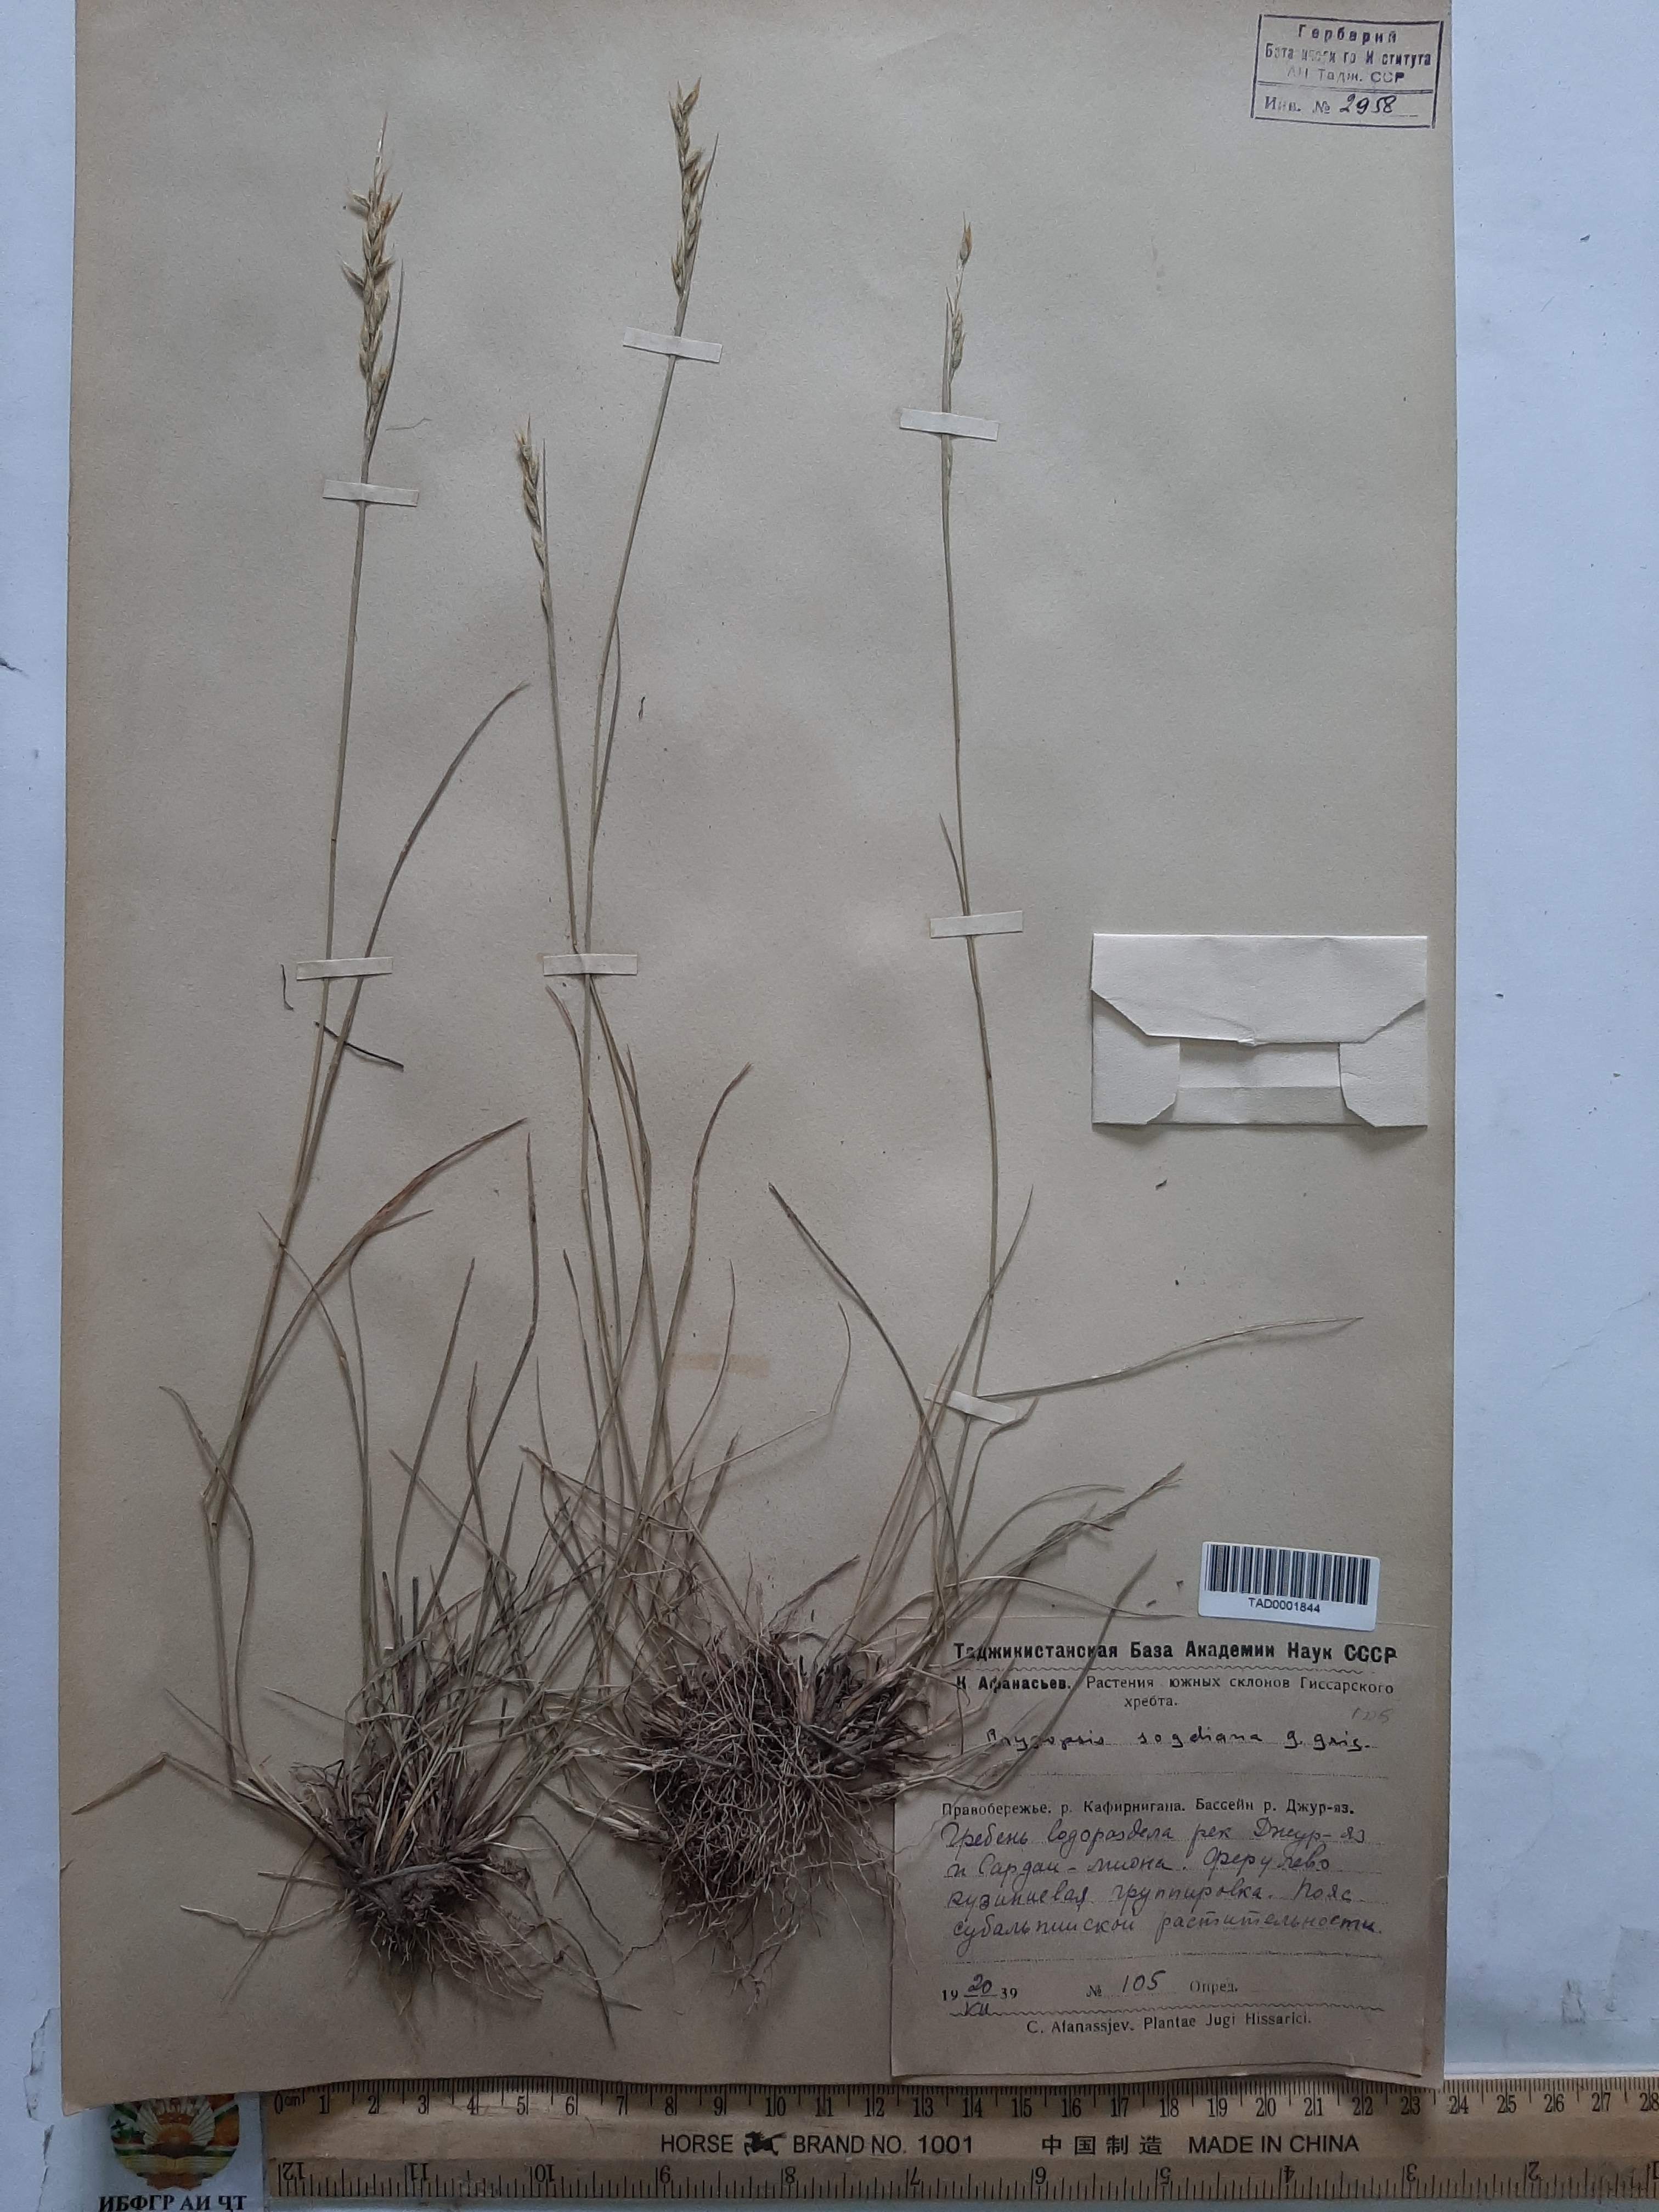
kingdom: Plantae
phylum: Tracheophyta
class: Liliopsida
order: Poales
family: Poaceae
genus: Piptatherum
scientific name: Piptatherum sogdianum
